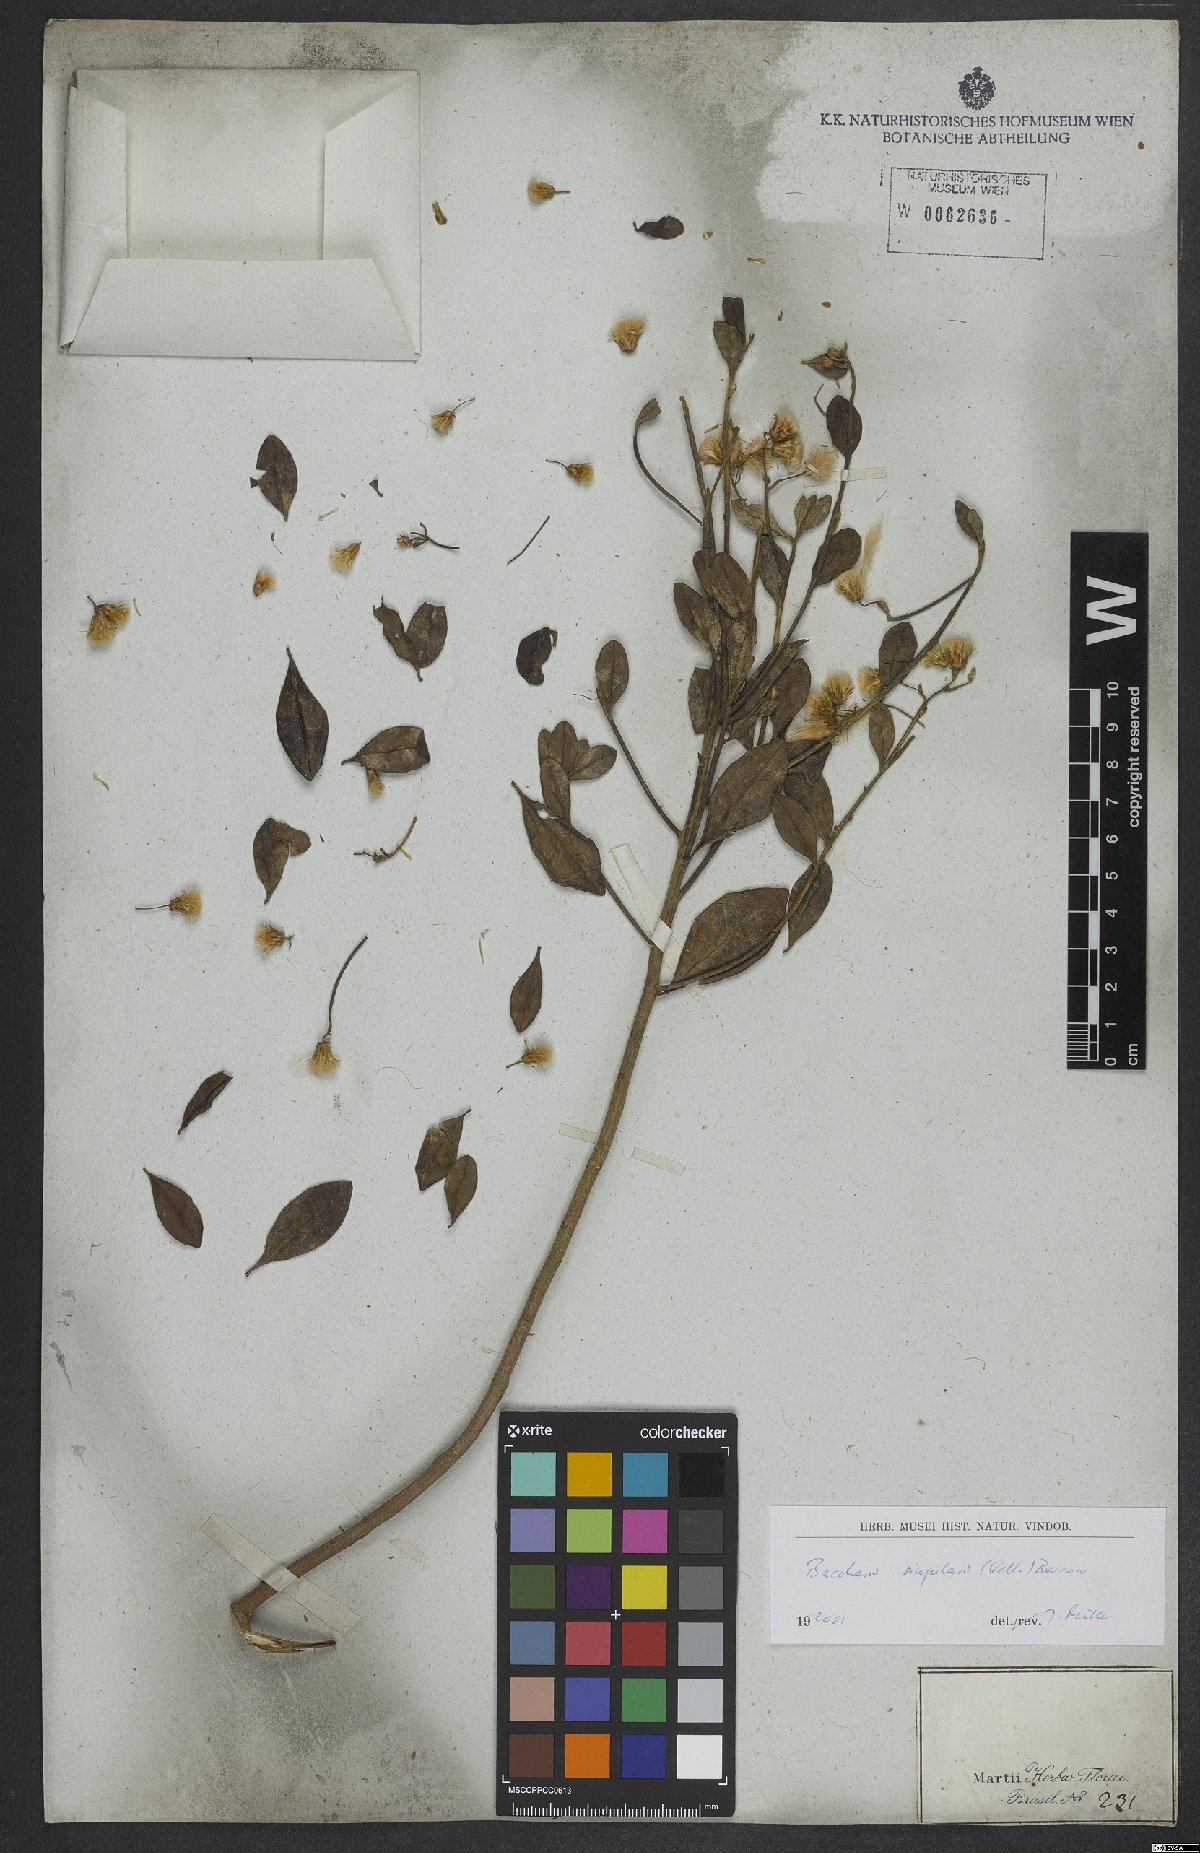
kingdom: Plantae
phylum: Tracheophyta
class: Magnoliopsida
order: Asterales
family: Asteraceae
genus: Baccharis
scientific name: Baccharis singularis
